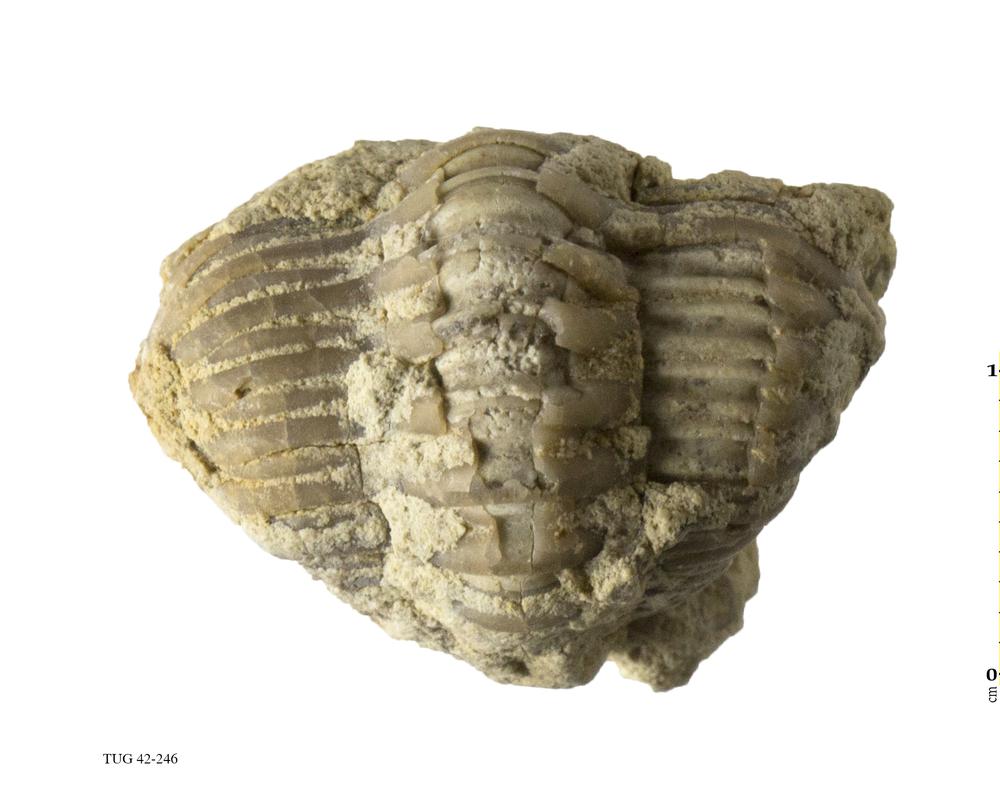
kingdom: Animalia
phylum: Arthropoda
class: Trilobita
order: Phacopida
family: Phacopidae
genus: Phacops
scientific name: Phacops
